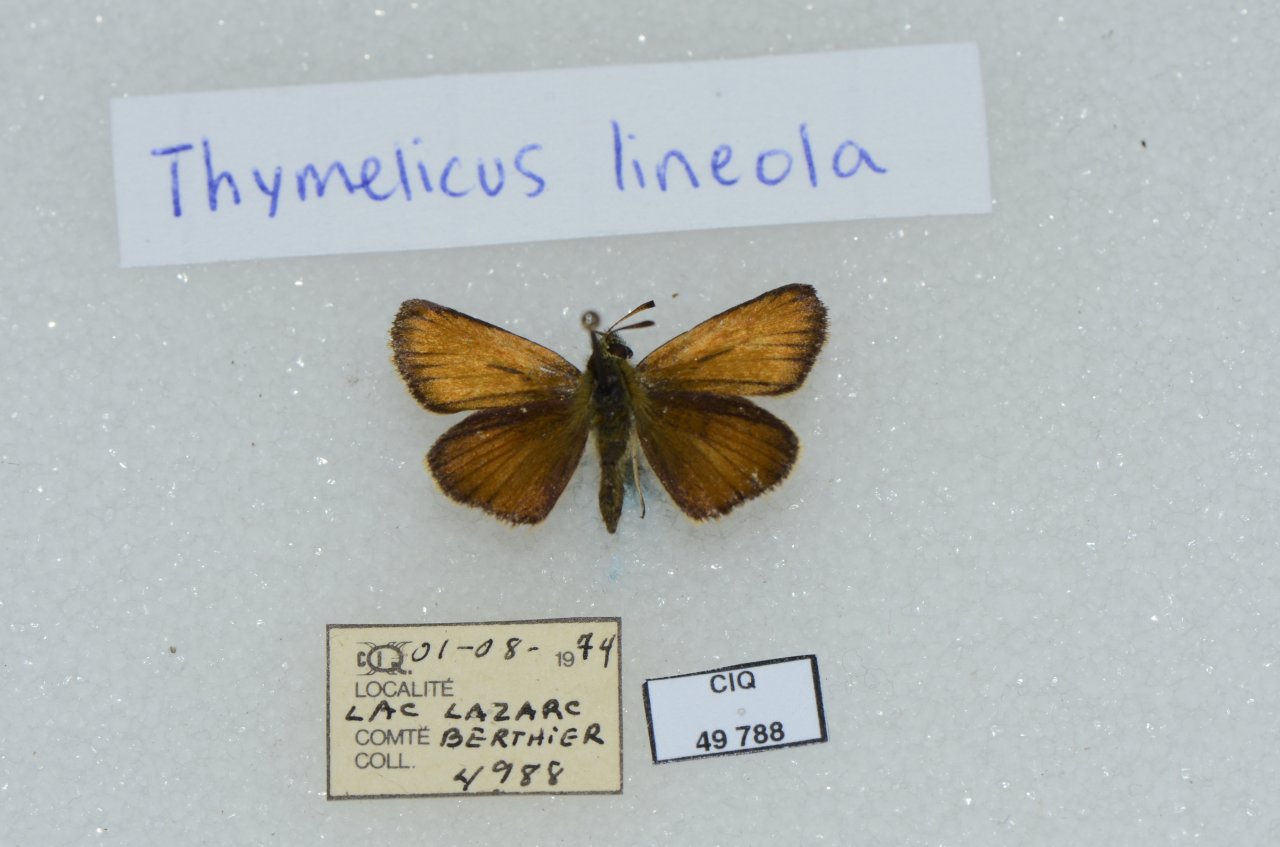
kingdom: Animalia
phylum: Arthropoda
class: Insecta
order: Lepidoptera
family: Hesperiidae
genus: Thymelicus
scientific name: Thymelicus lineola
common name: European Skipper
